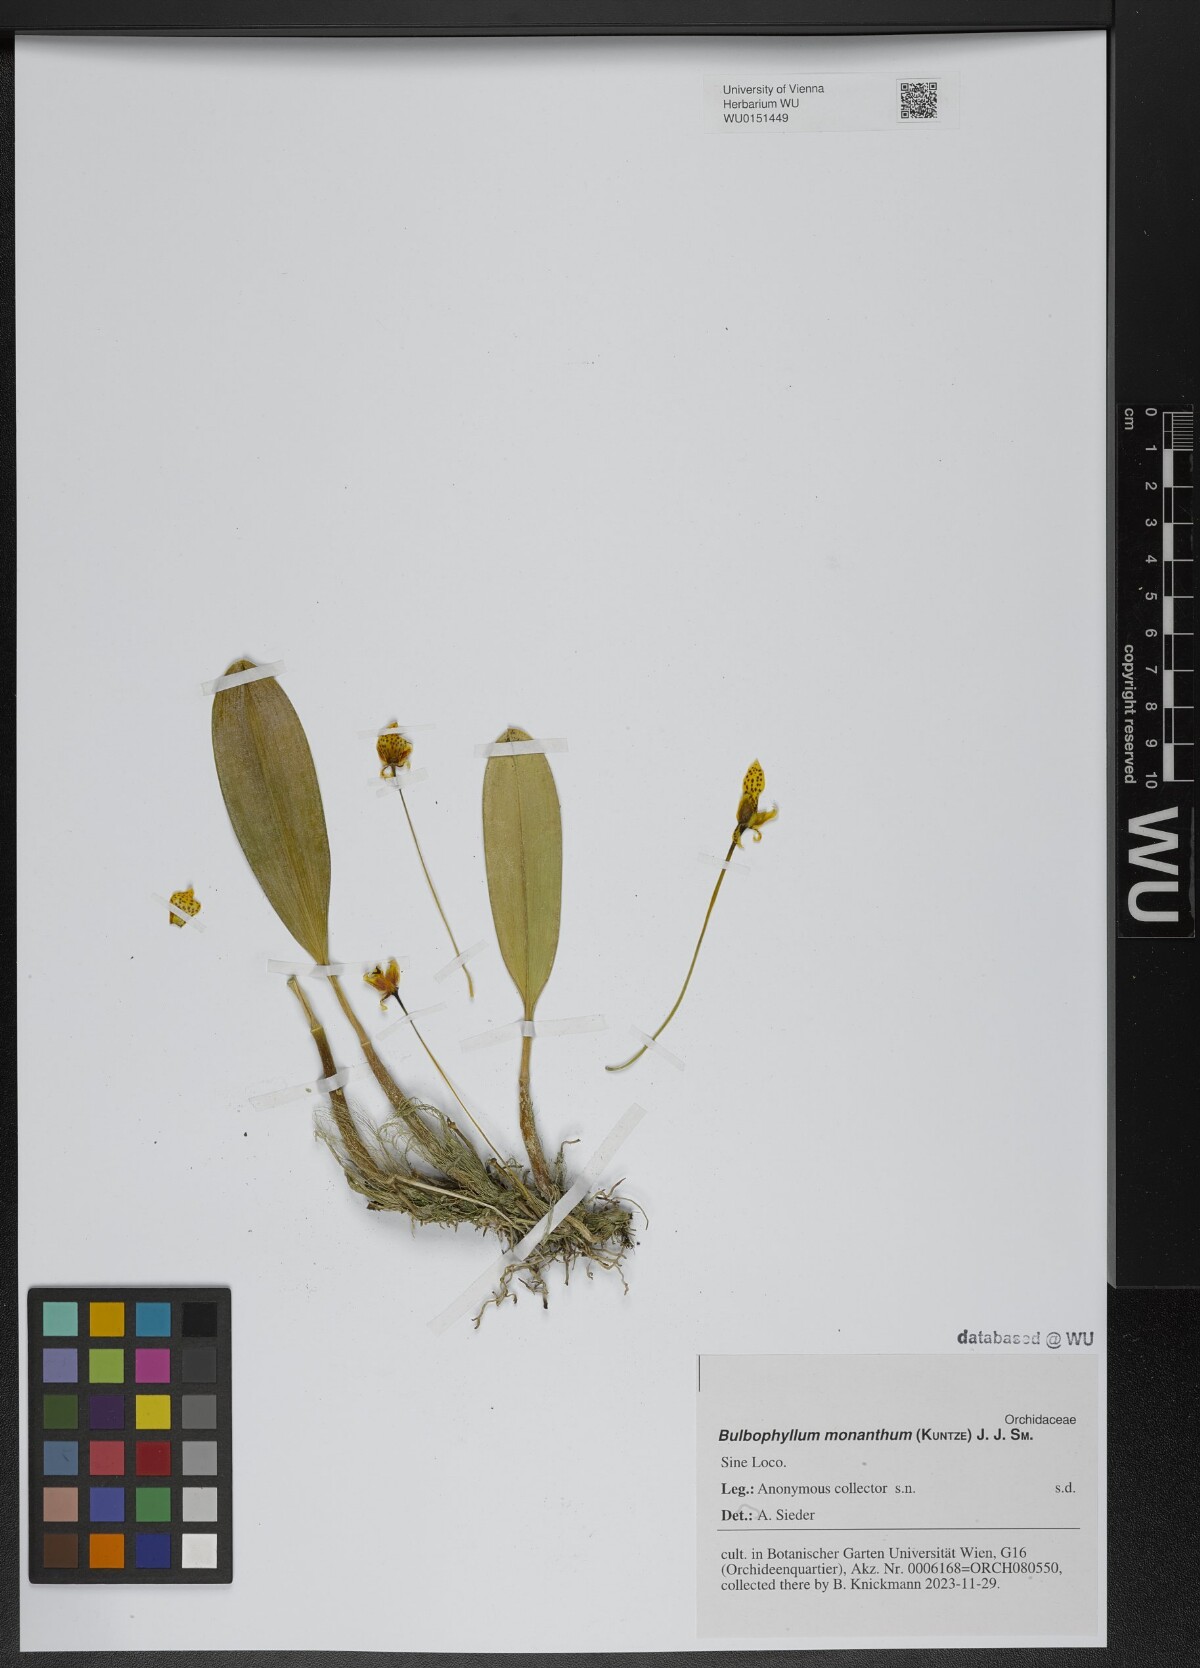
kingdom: Plantae
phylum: Tracheophyta
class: Liliopsida
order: Asparagales
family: Orchidaceae
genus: Bulbophyllum
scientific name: Bulbophyllum pteroglossum
